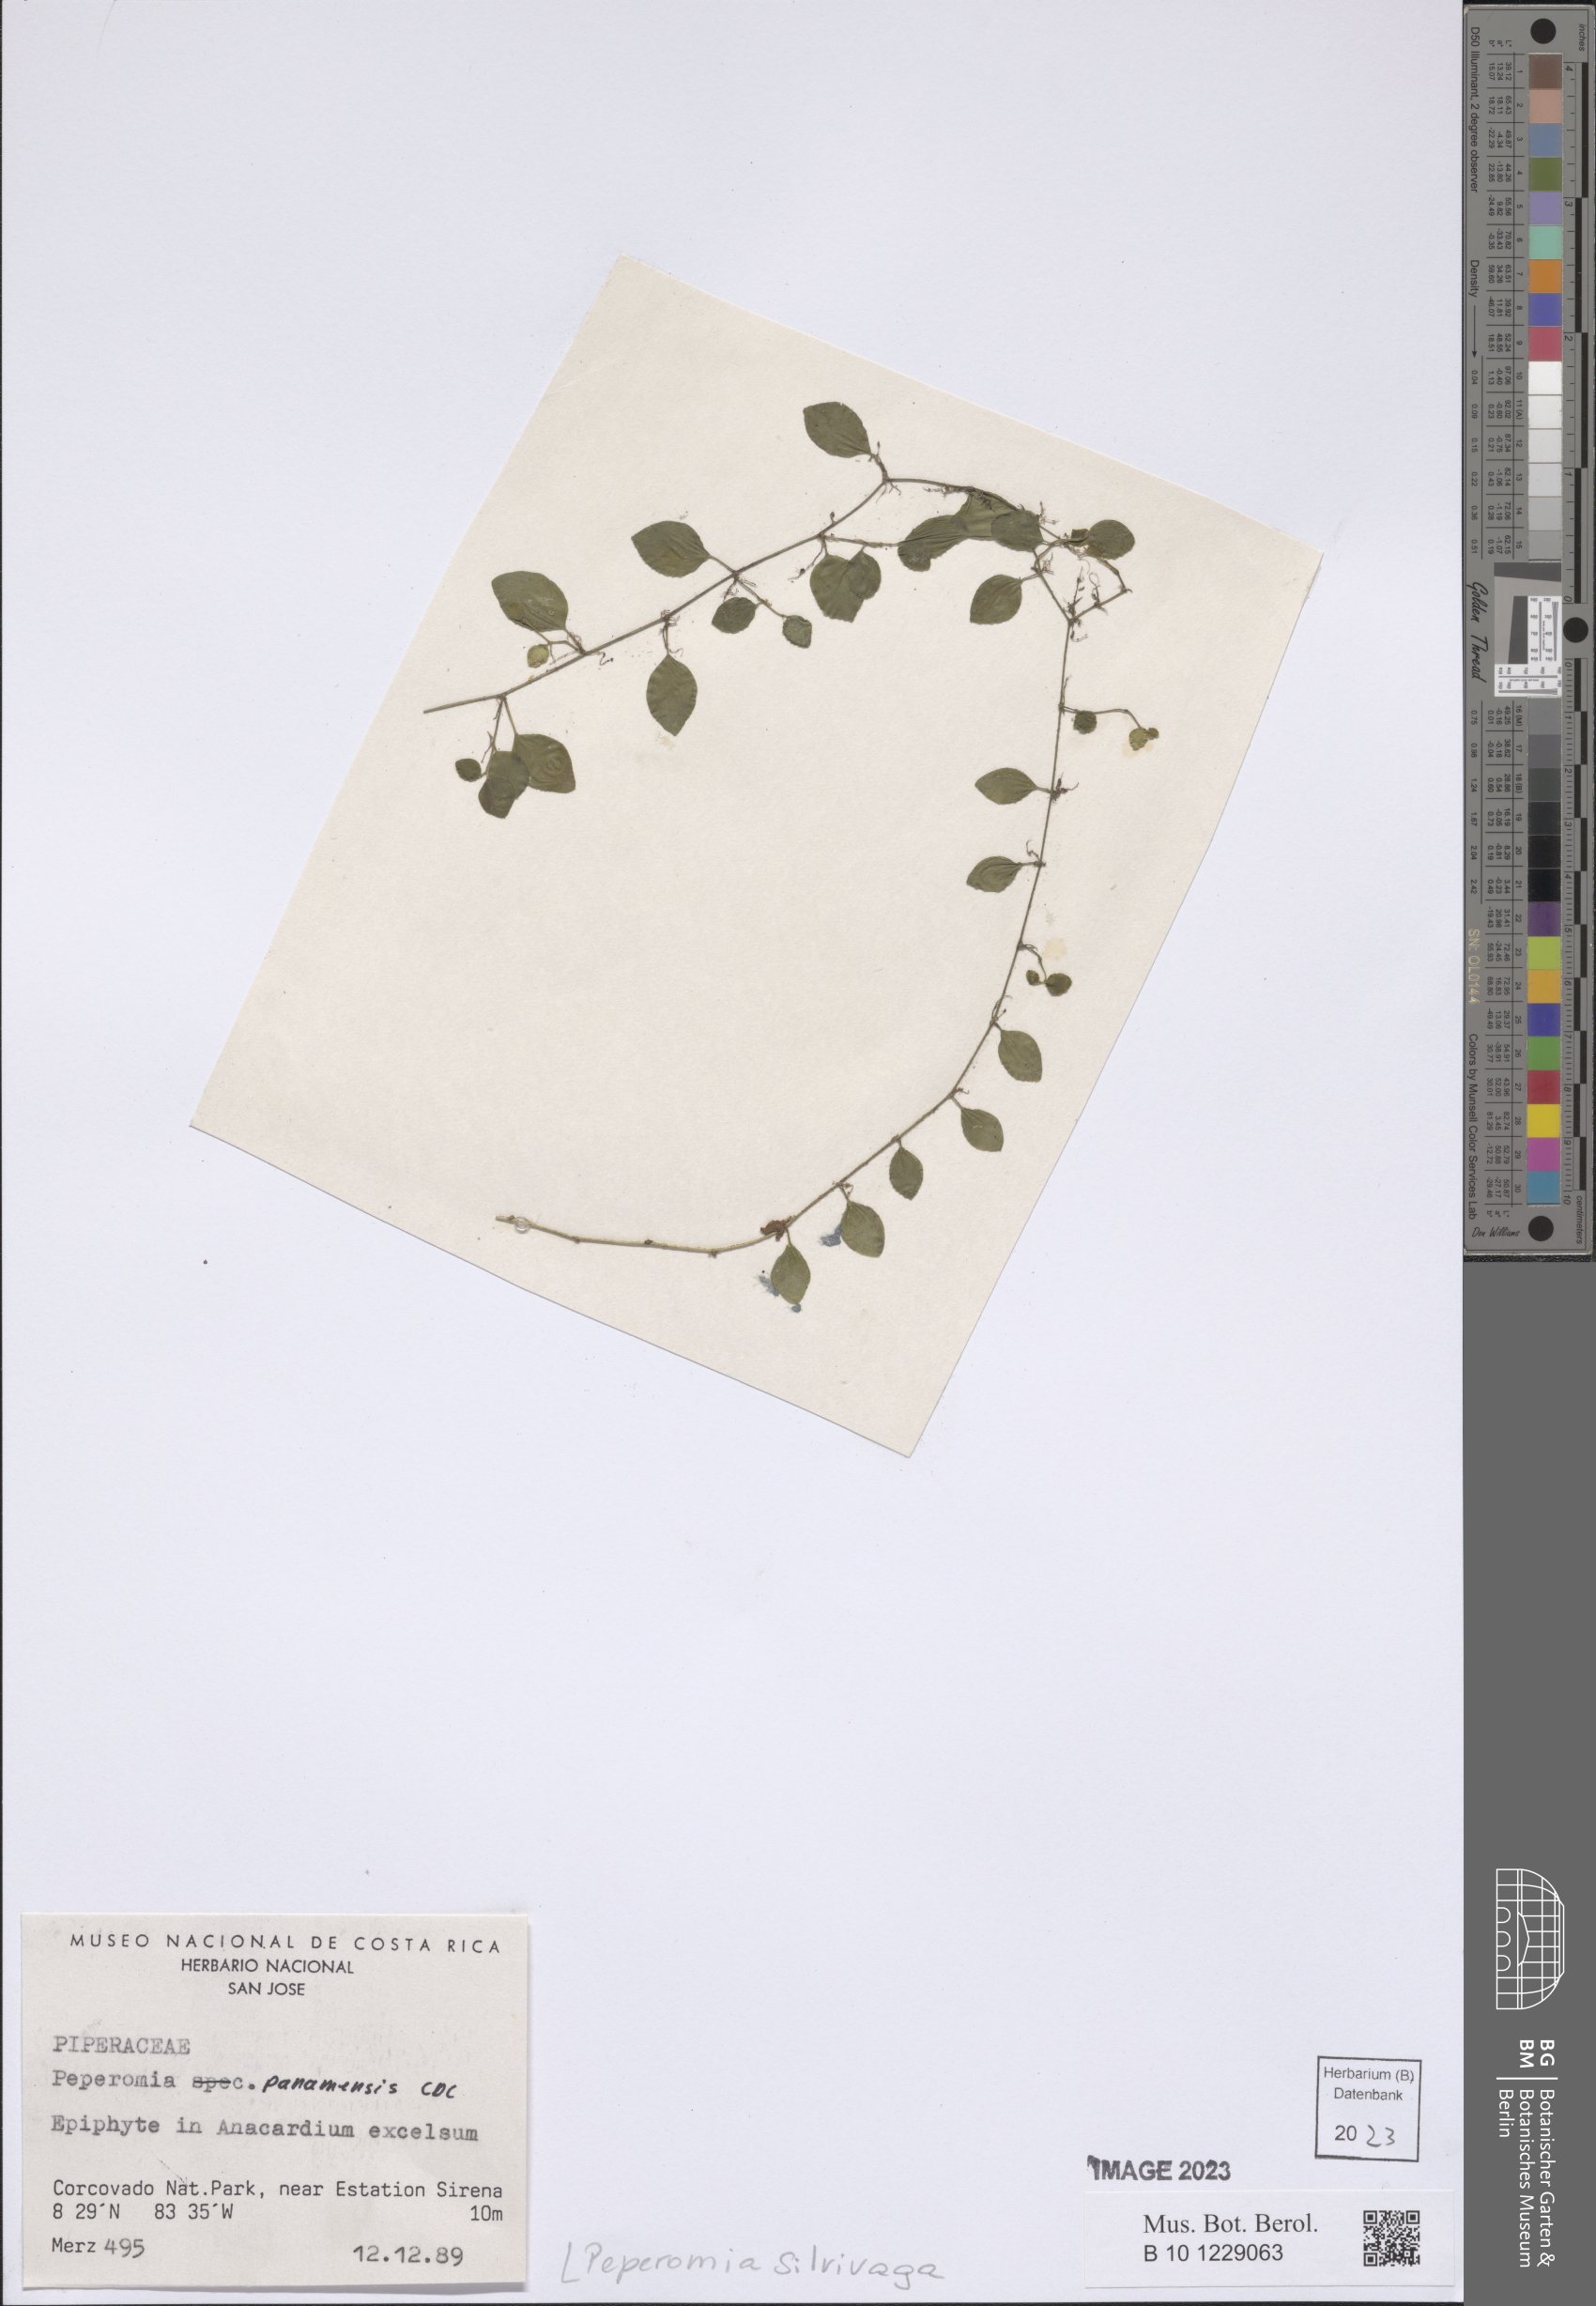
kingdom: Plantae
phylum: Tracheophyta
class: Magnoliopsida
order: Piperales
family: Piperaceae
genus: Peperomia
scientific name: Peperomia silvivaga
